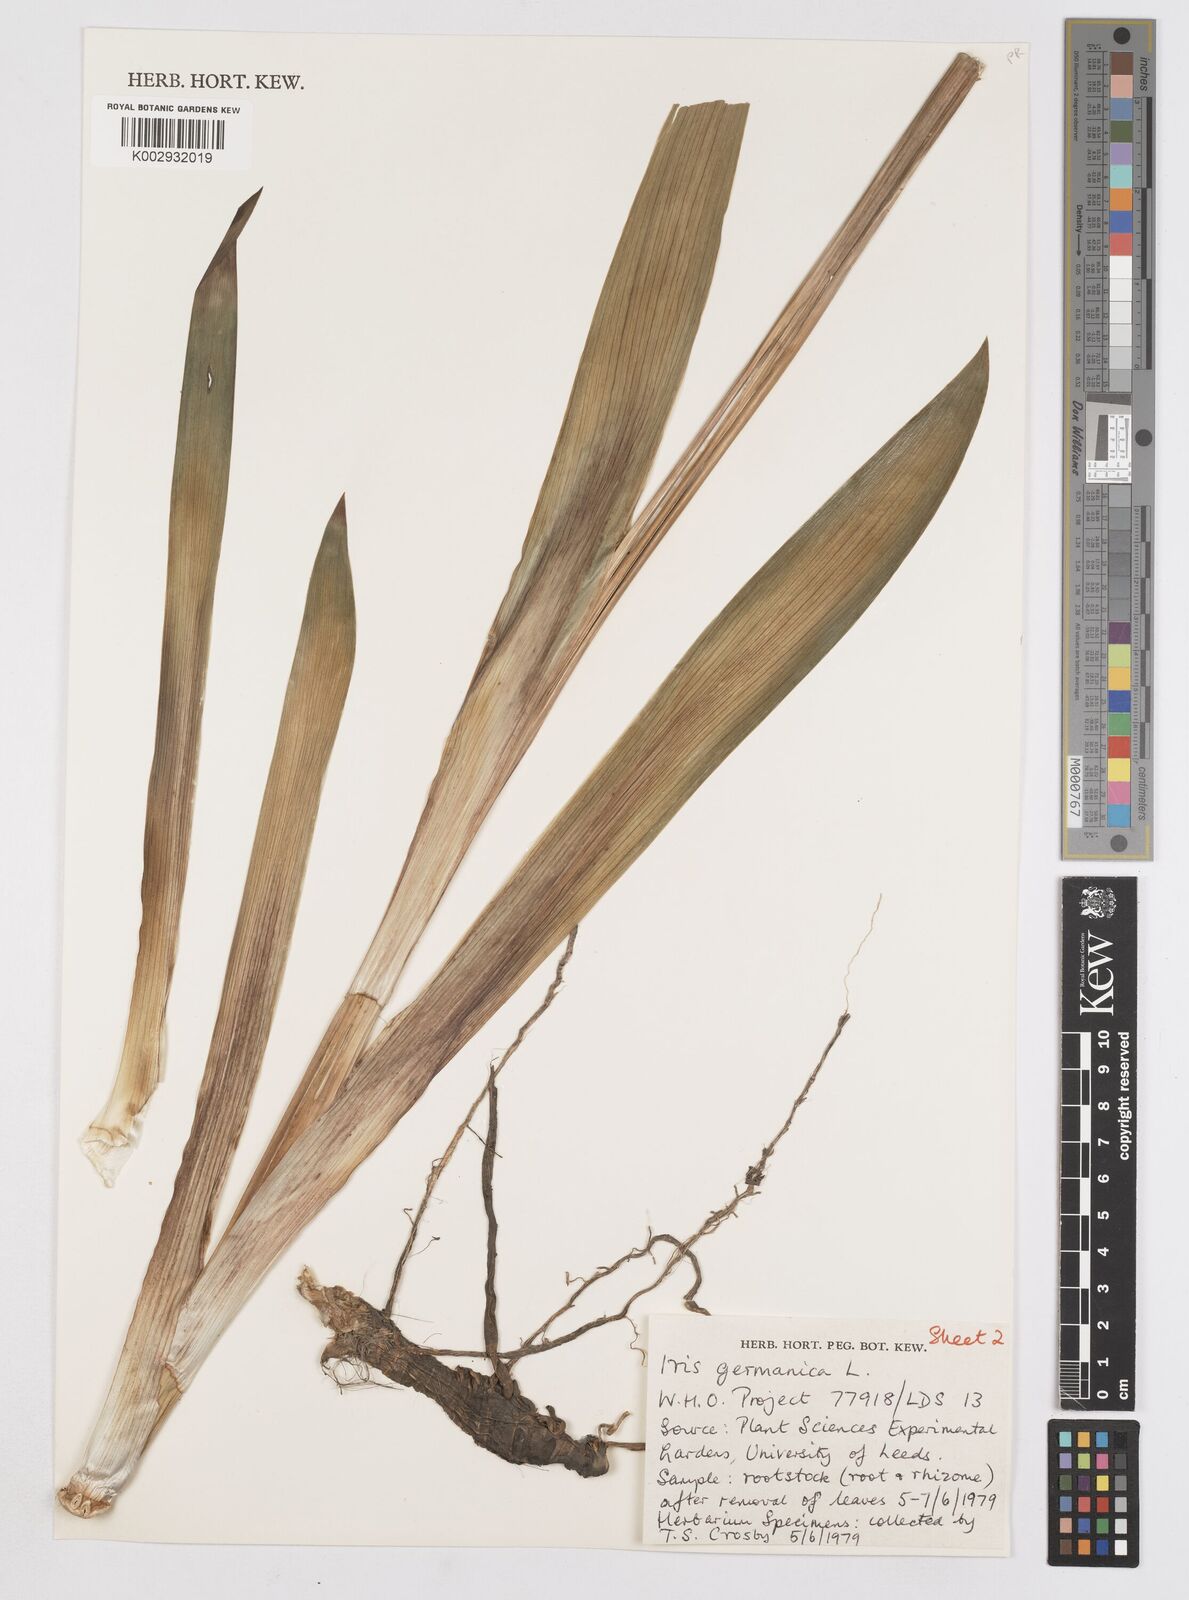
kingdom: Plantae
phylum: Tracheophyta
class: Liliopsida
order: Asparagales
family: Iridaceae
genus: Iris
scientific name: Iris germanica
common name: German iris
